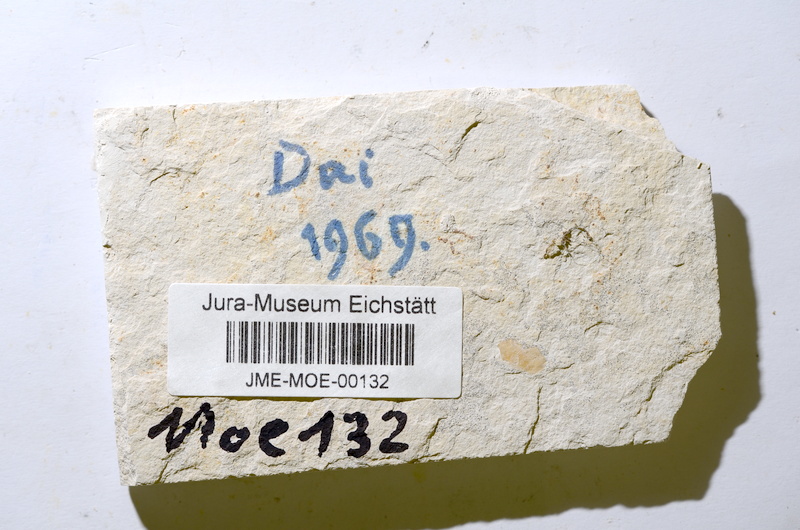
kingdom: Animalia
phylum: Chordata
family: Ascalaboidae
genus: Tharsis
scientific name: Tharsis
